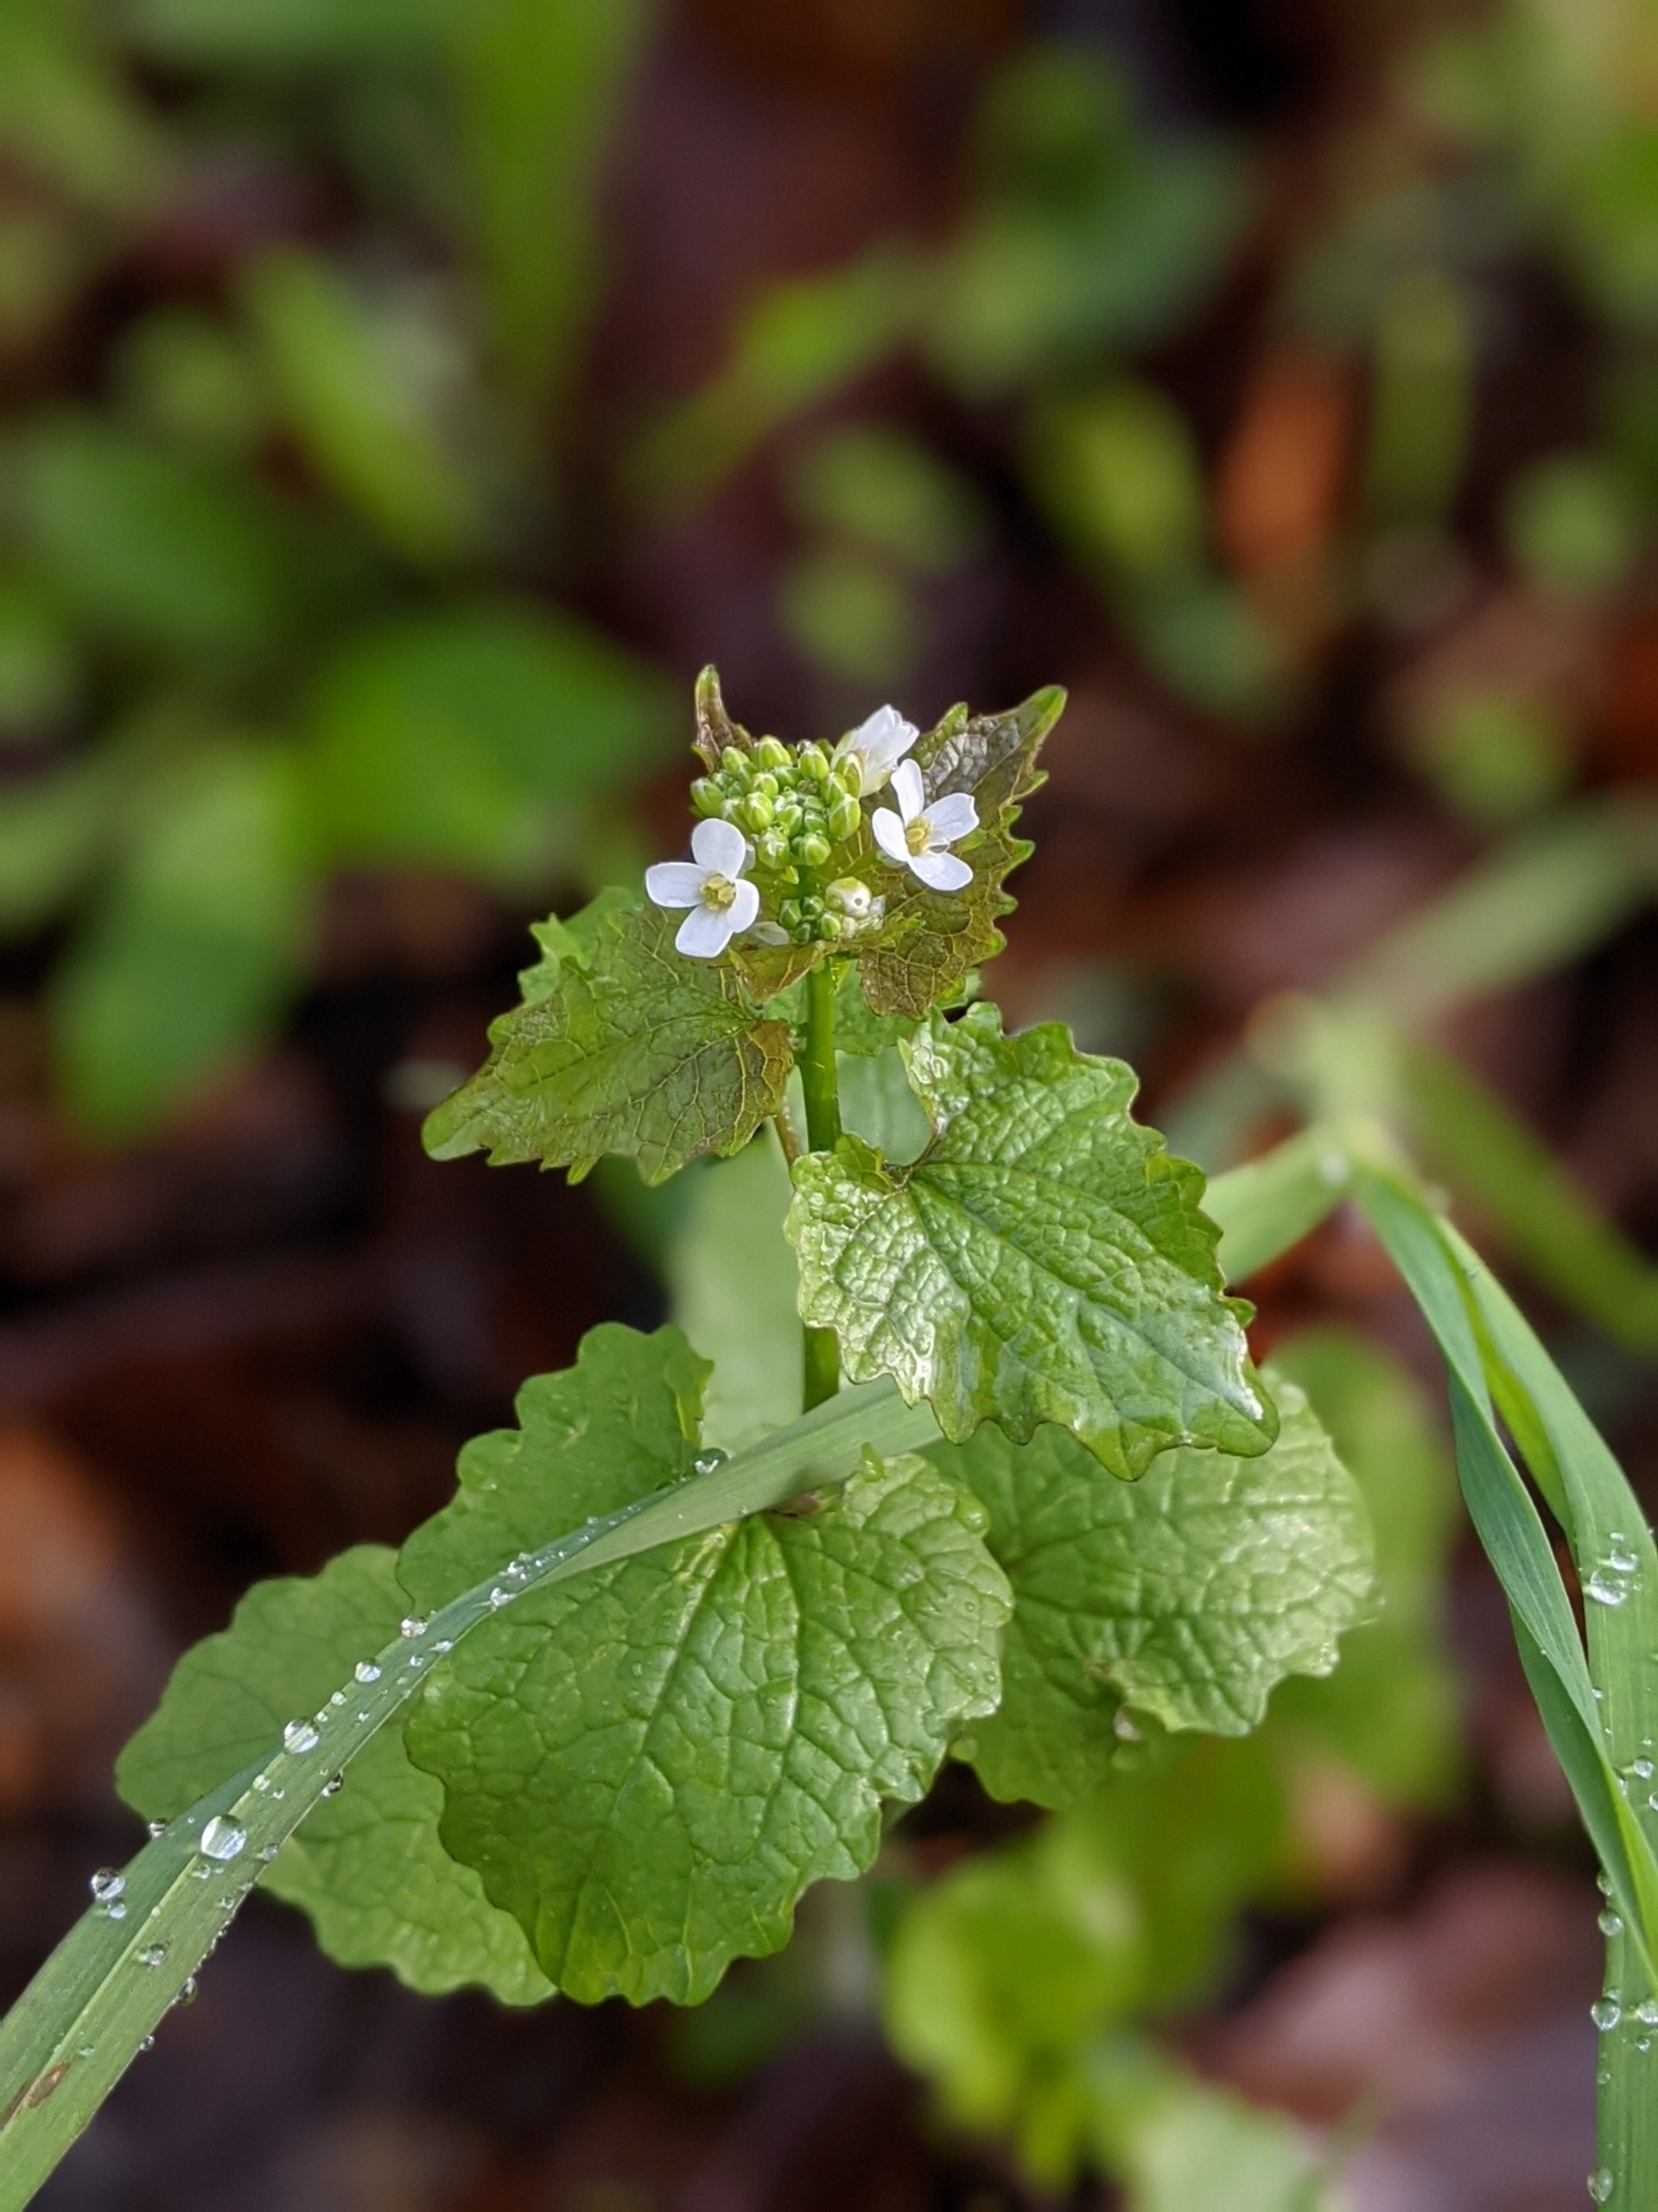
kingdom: Plantae
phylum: Tracheophyta
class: Magnoliopsida
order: Brassicales
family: Brassicaceae
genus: Alliaria
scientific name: Alliaria petiolata
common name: Løgkarse
